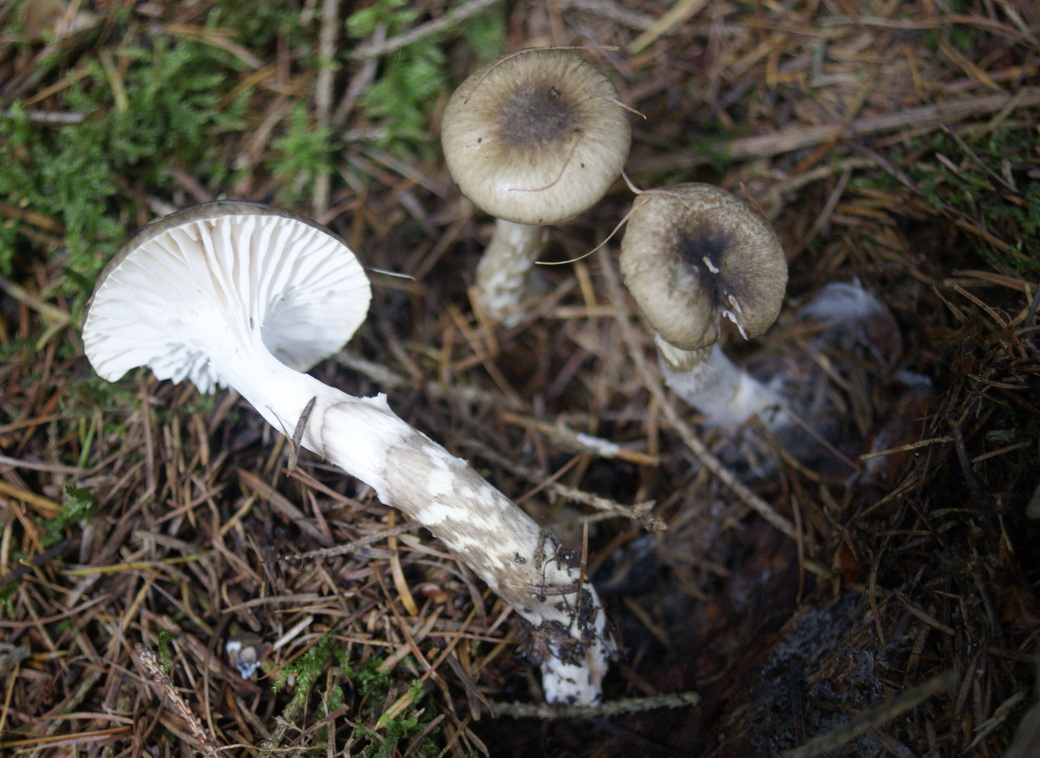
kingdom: Fungi
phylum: Basidiomycota
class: Agaricomycetes
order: Agaricales
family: Hygrophoraceae
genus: Hygrophorus
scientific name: Hygrophorus olivaceoalbus
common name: hvidbrun sneglehat
